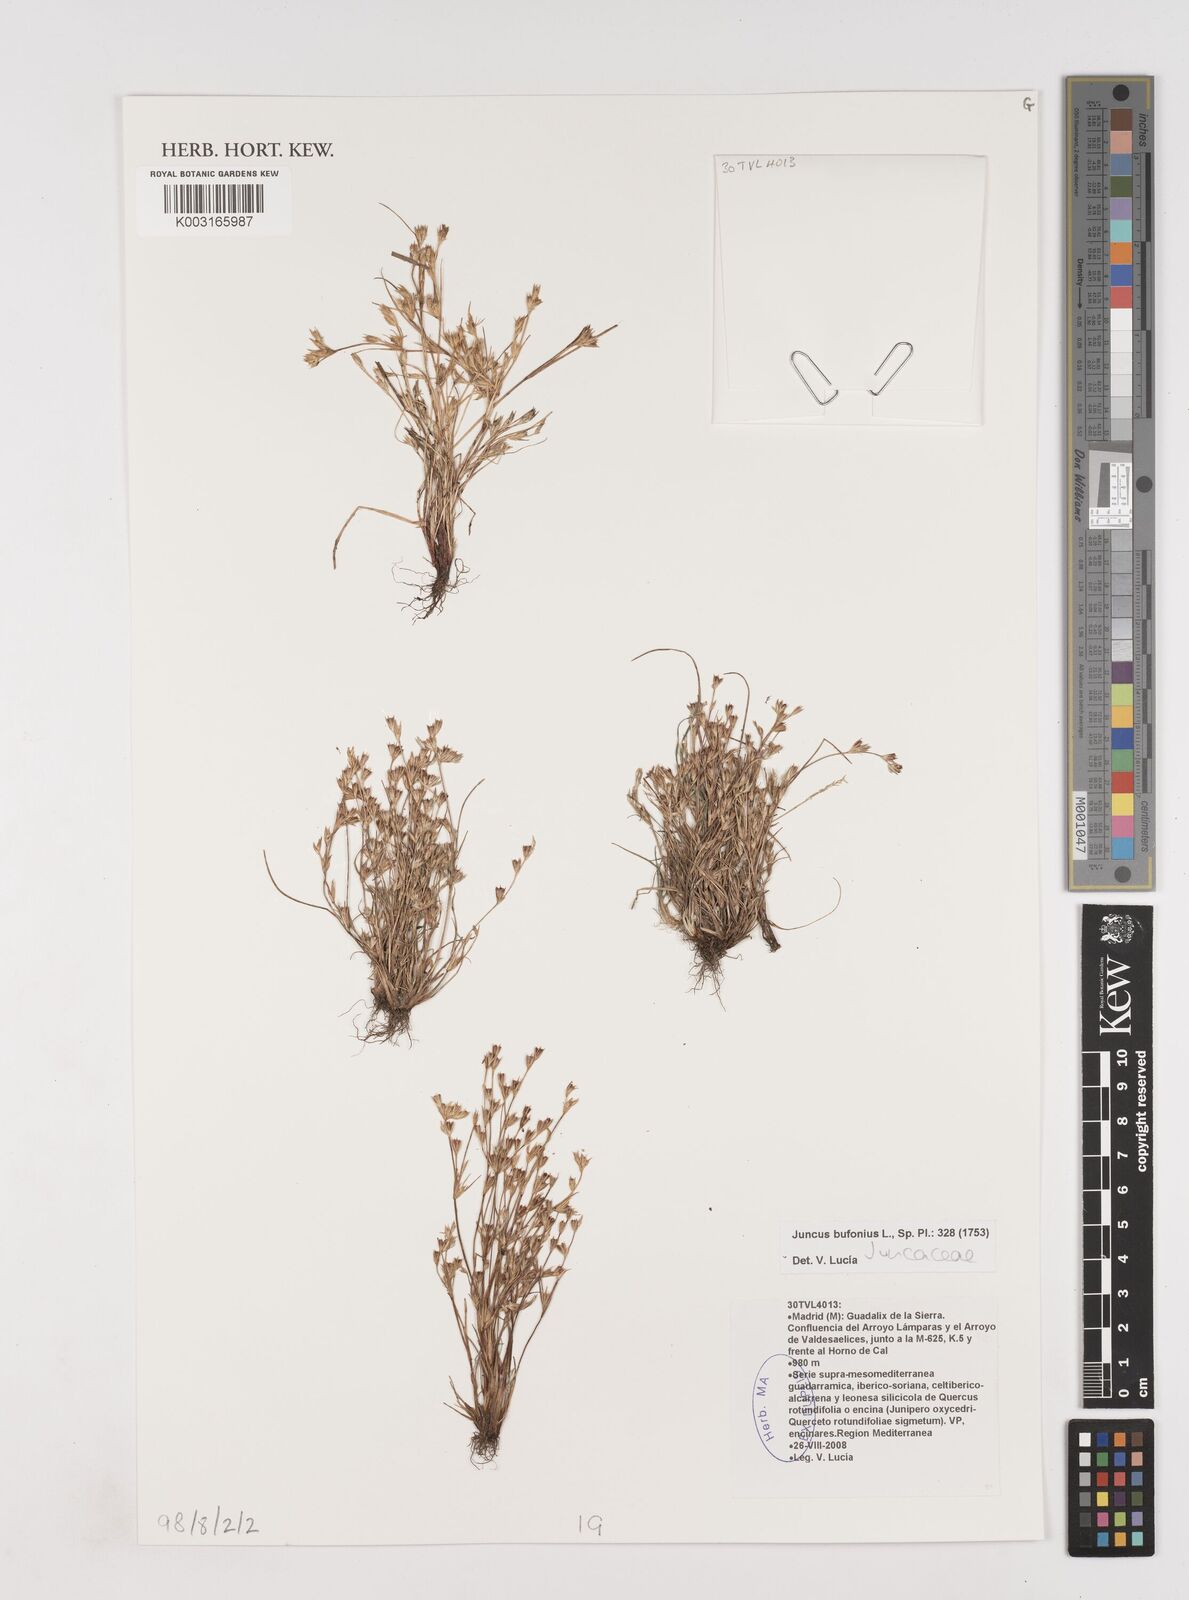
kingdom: Plantae
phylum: Tracheophyta
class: Liliopsida
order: Poales
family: Juncaceae
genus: Juncus
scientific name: Juncus bufonius
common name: Toad rush
